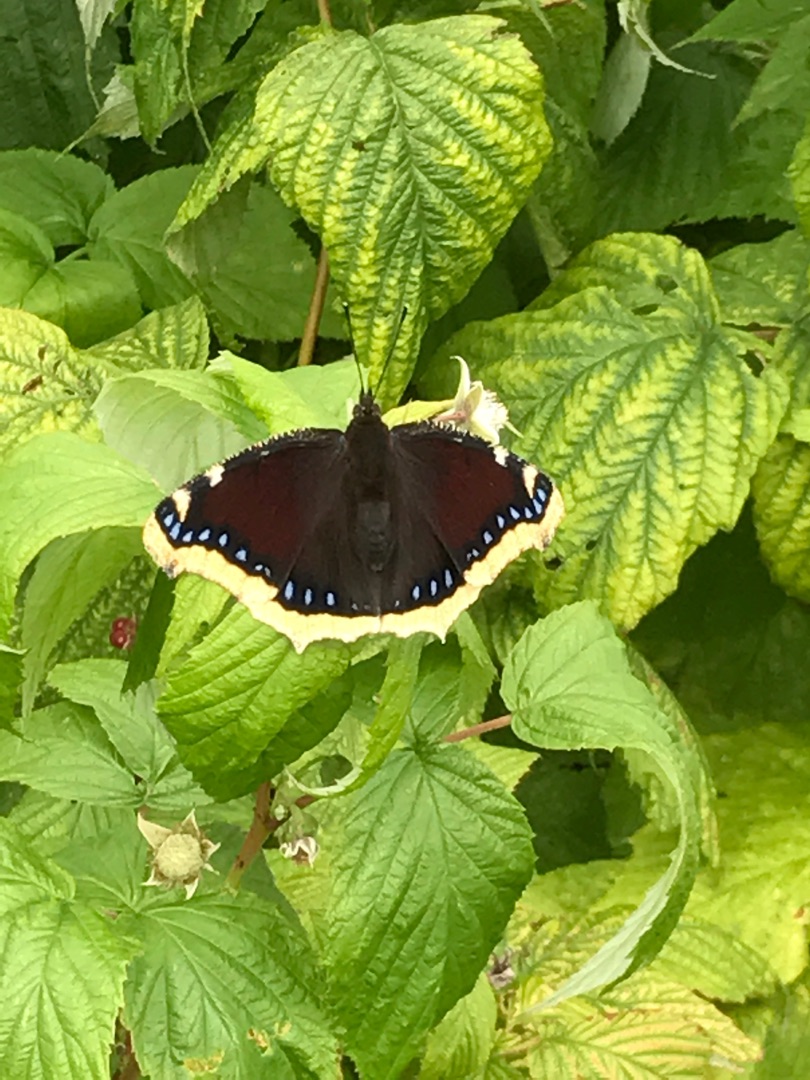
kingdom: Animalia
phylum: Arthropoda
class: Insecta
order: Lepidoptera
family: Nymphalidae
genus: Nymphalis
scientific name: Nymphalis antiopa
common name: Sørgekåbe
